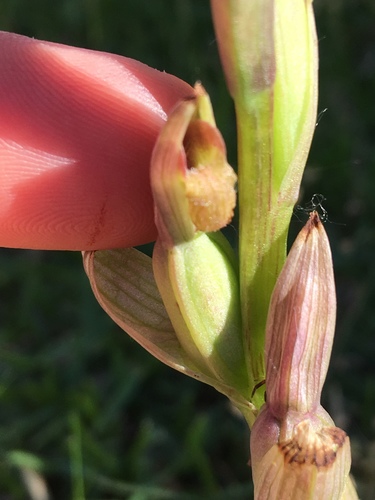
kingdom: Plantae
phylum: Tracheophyta
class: Liliopsida
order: Asparagales
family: Orchidaceae
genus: Serapias
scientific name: Serapias strictiflora
